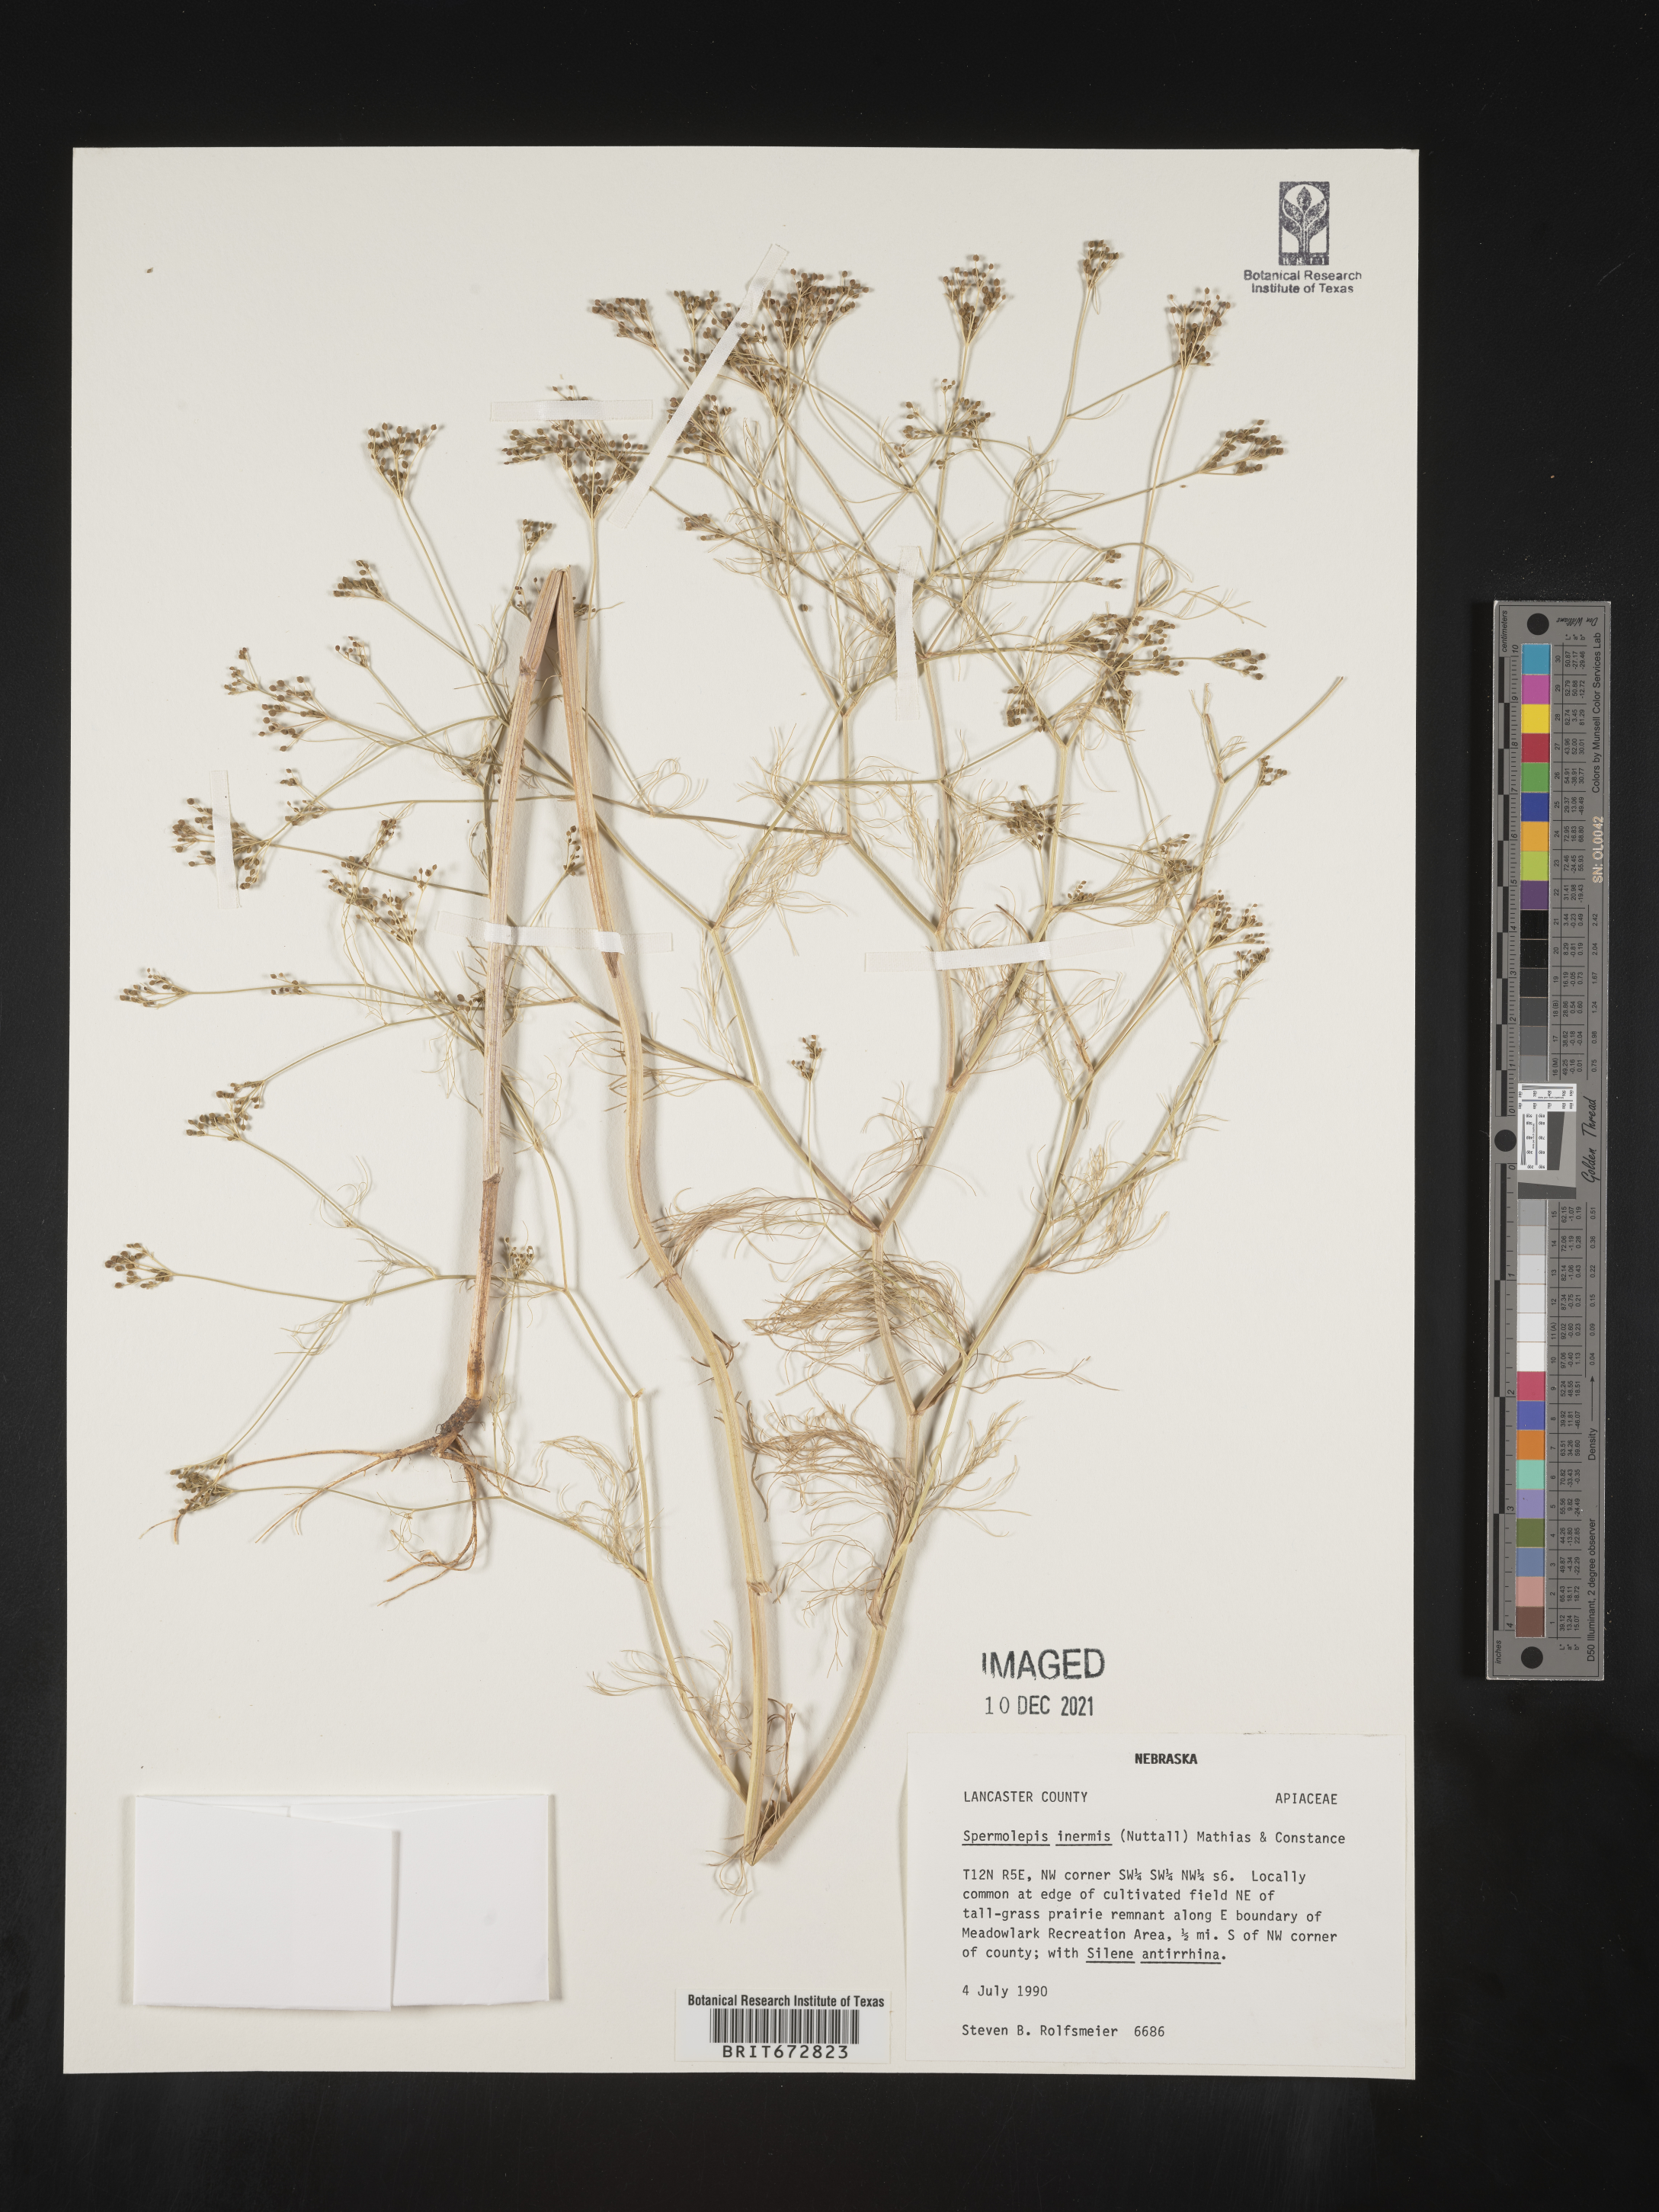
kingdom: Plantae
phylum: Tracheophyta
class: Magnoliopsida
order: Apiales
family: Apiaceae
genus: Spermolepis
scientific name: Spermolepis inermis
